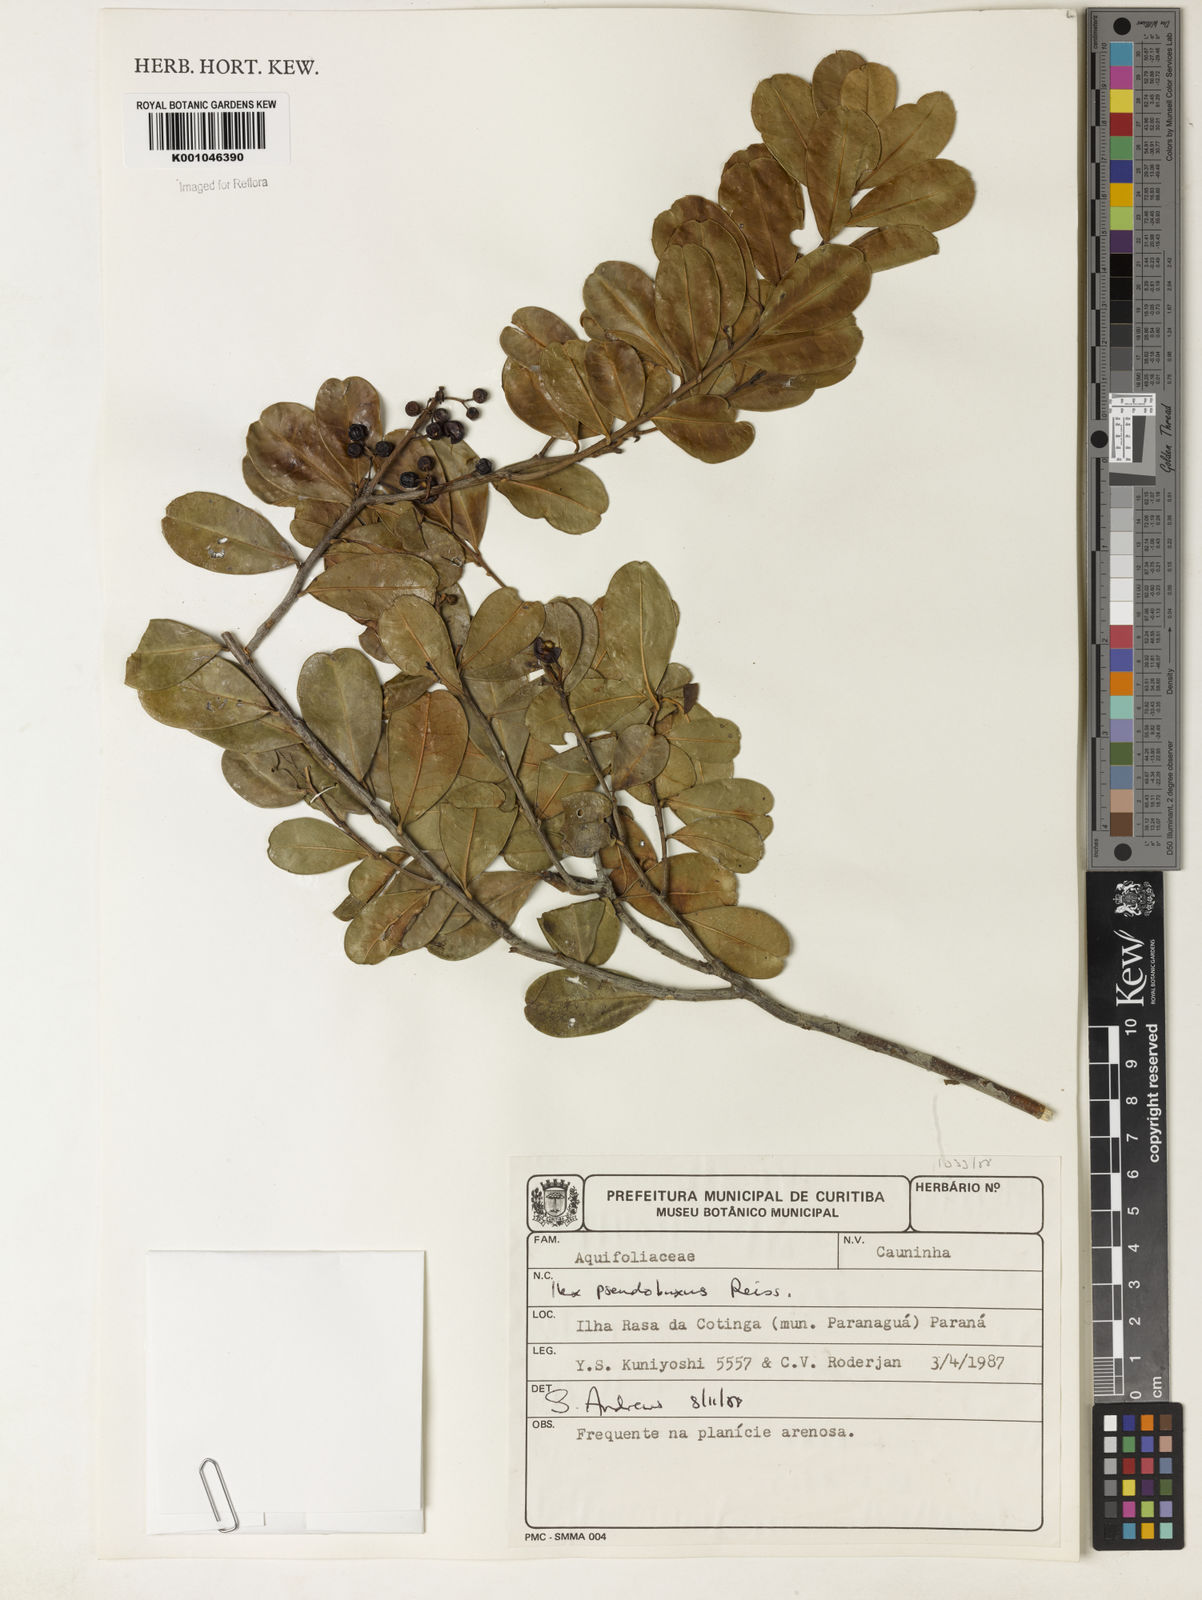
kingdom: Plantae
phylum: Tracheophyta
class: Magnoliopsida
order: Aquifoliales
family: Aquifoliaceae
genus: Ilex
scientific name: Ilex pseudobuxus
